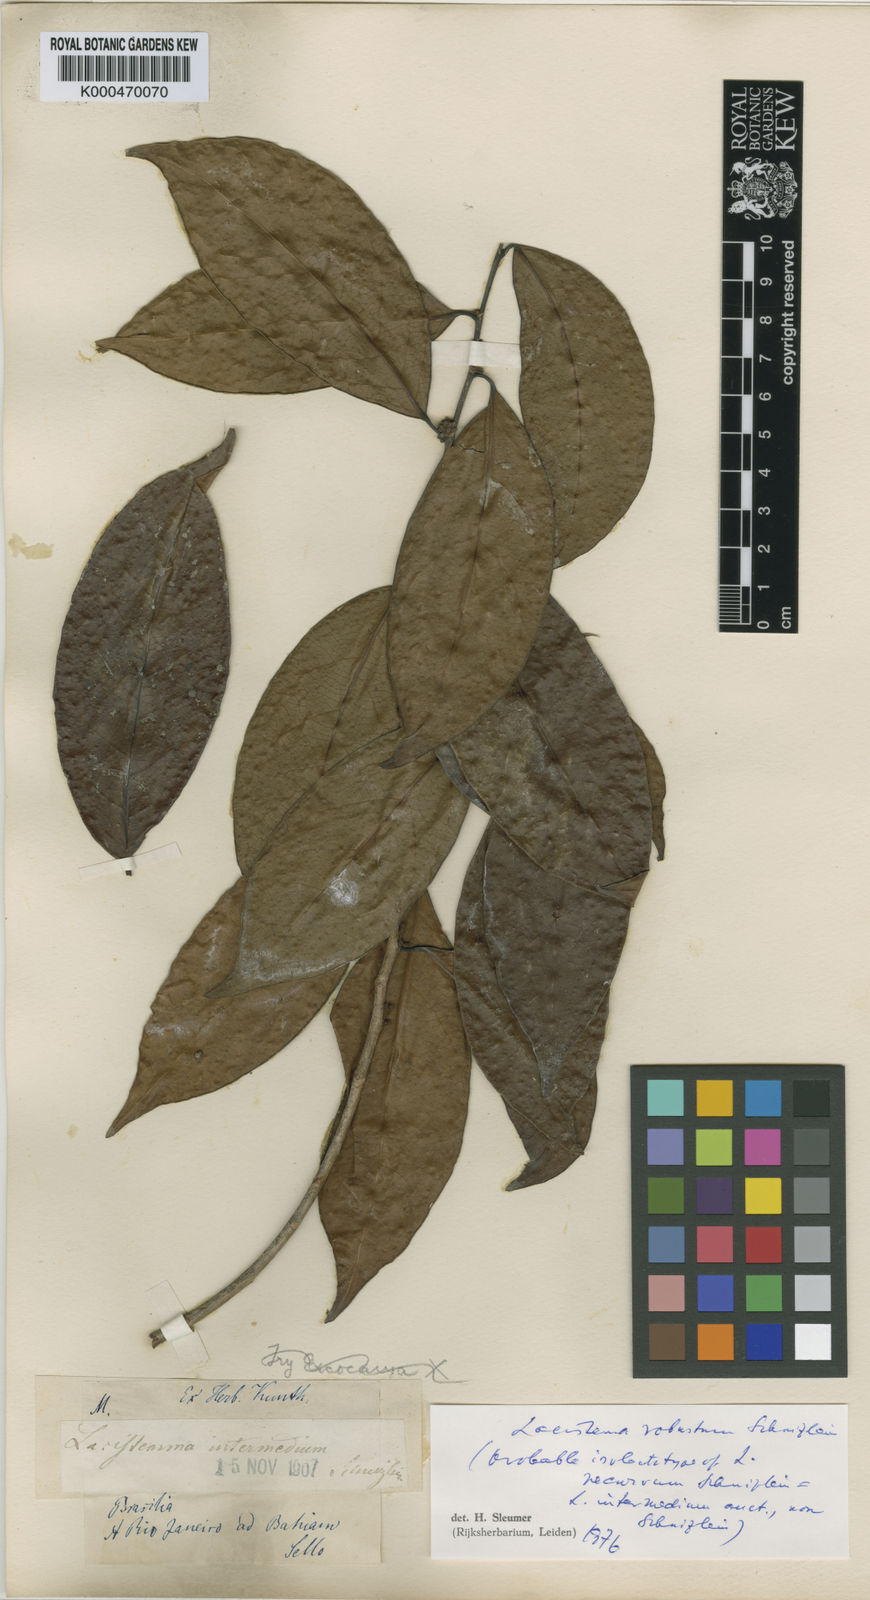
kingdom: Plantae
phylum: Tracheophyta
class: Magnoliopsida
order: Malpighiales
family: Lacistemataceae
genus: Lacistema
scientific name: Lacistema polystachyum
